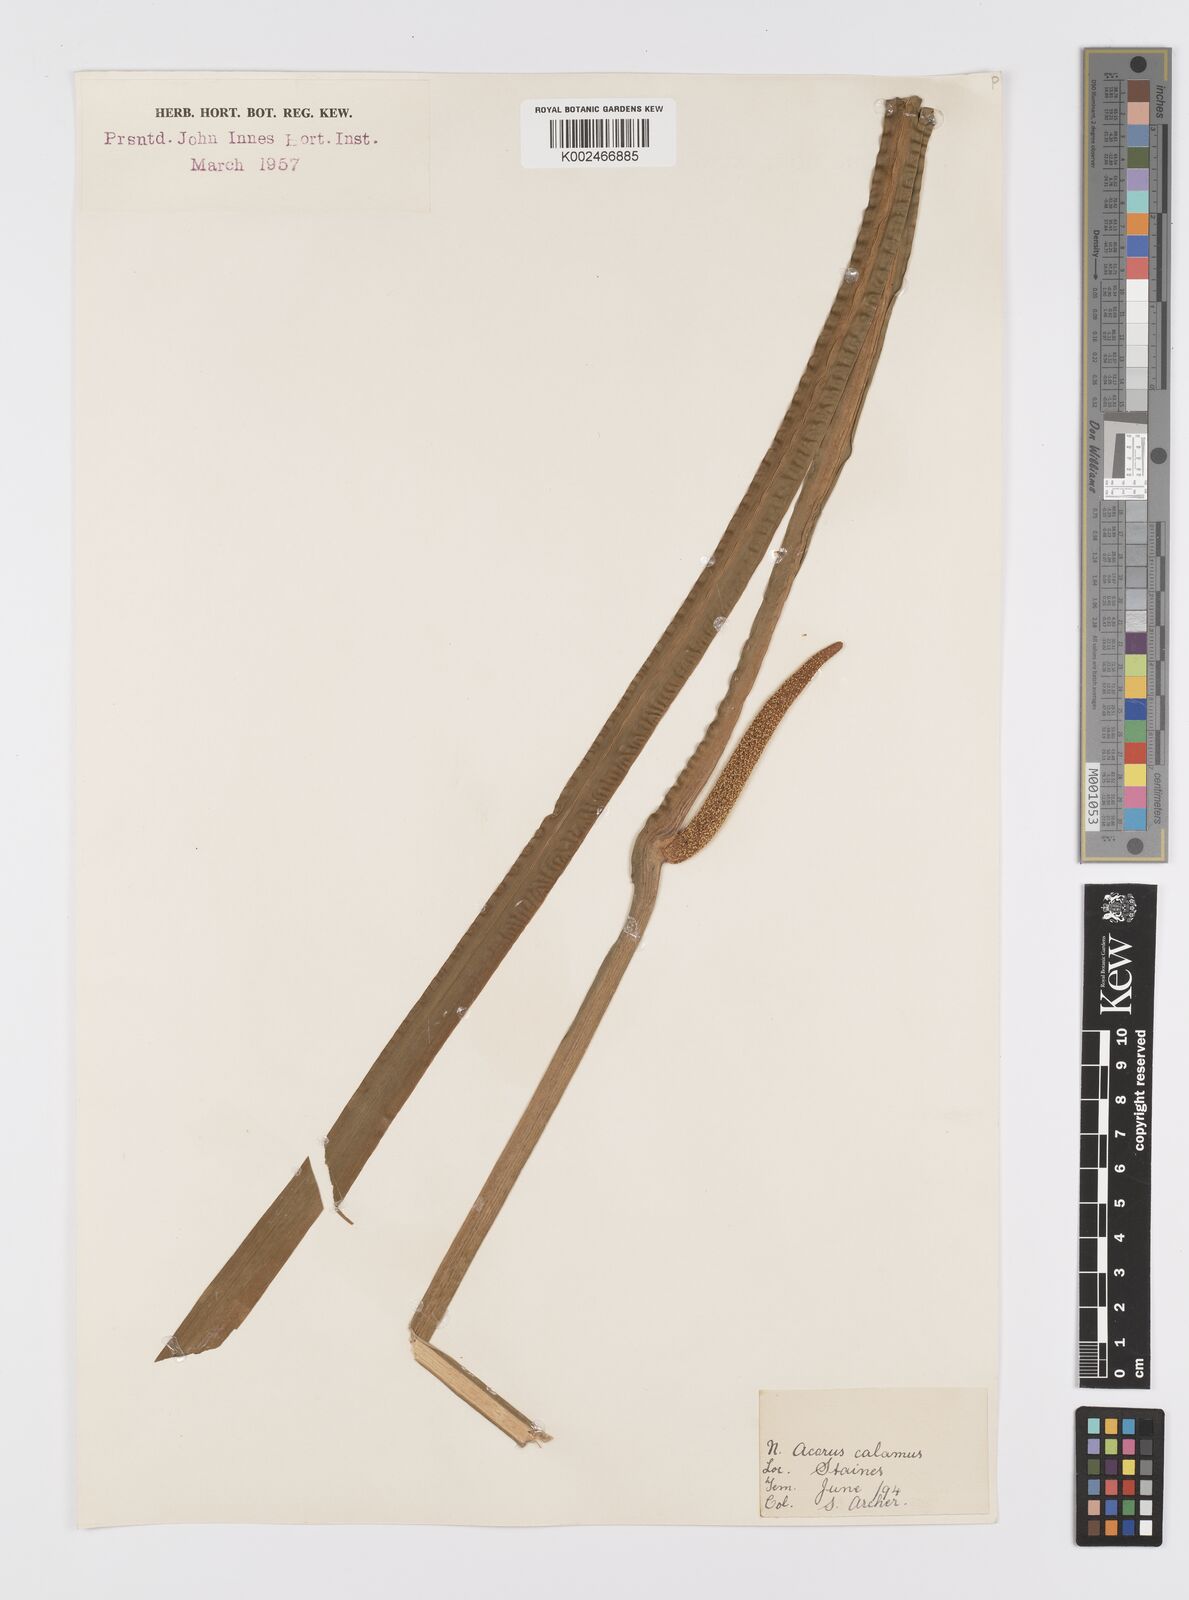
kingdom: Plantae
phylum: Tracheophyta
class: Liliopsida
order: Acorales
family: Acoraceae
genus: Acorus
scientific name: Acorus calamus
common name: Sweet-flag
